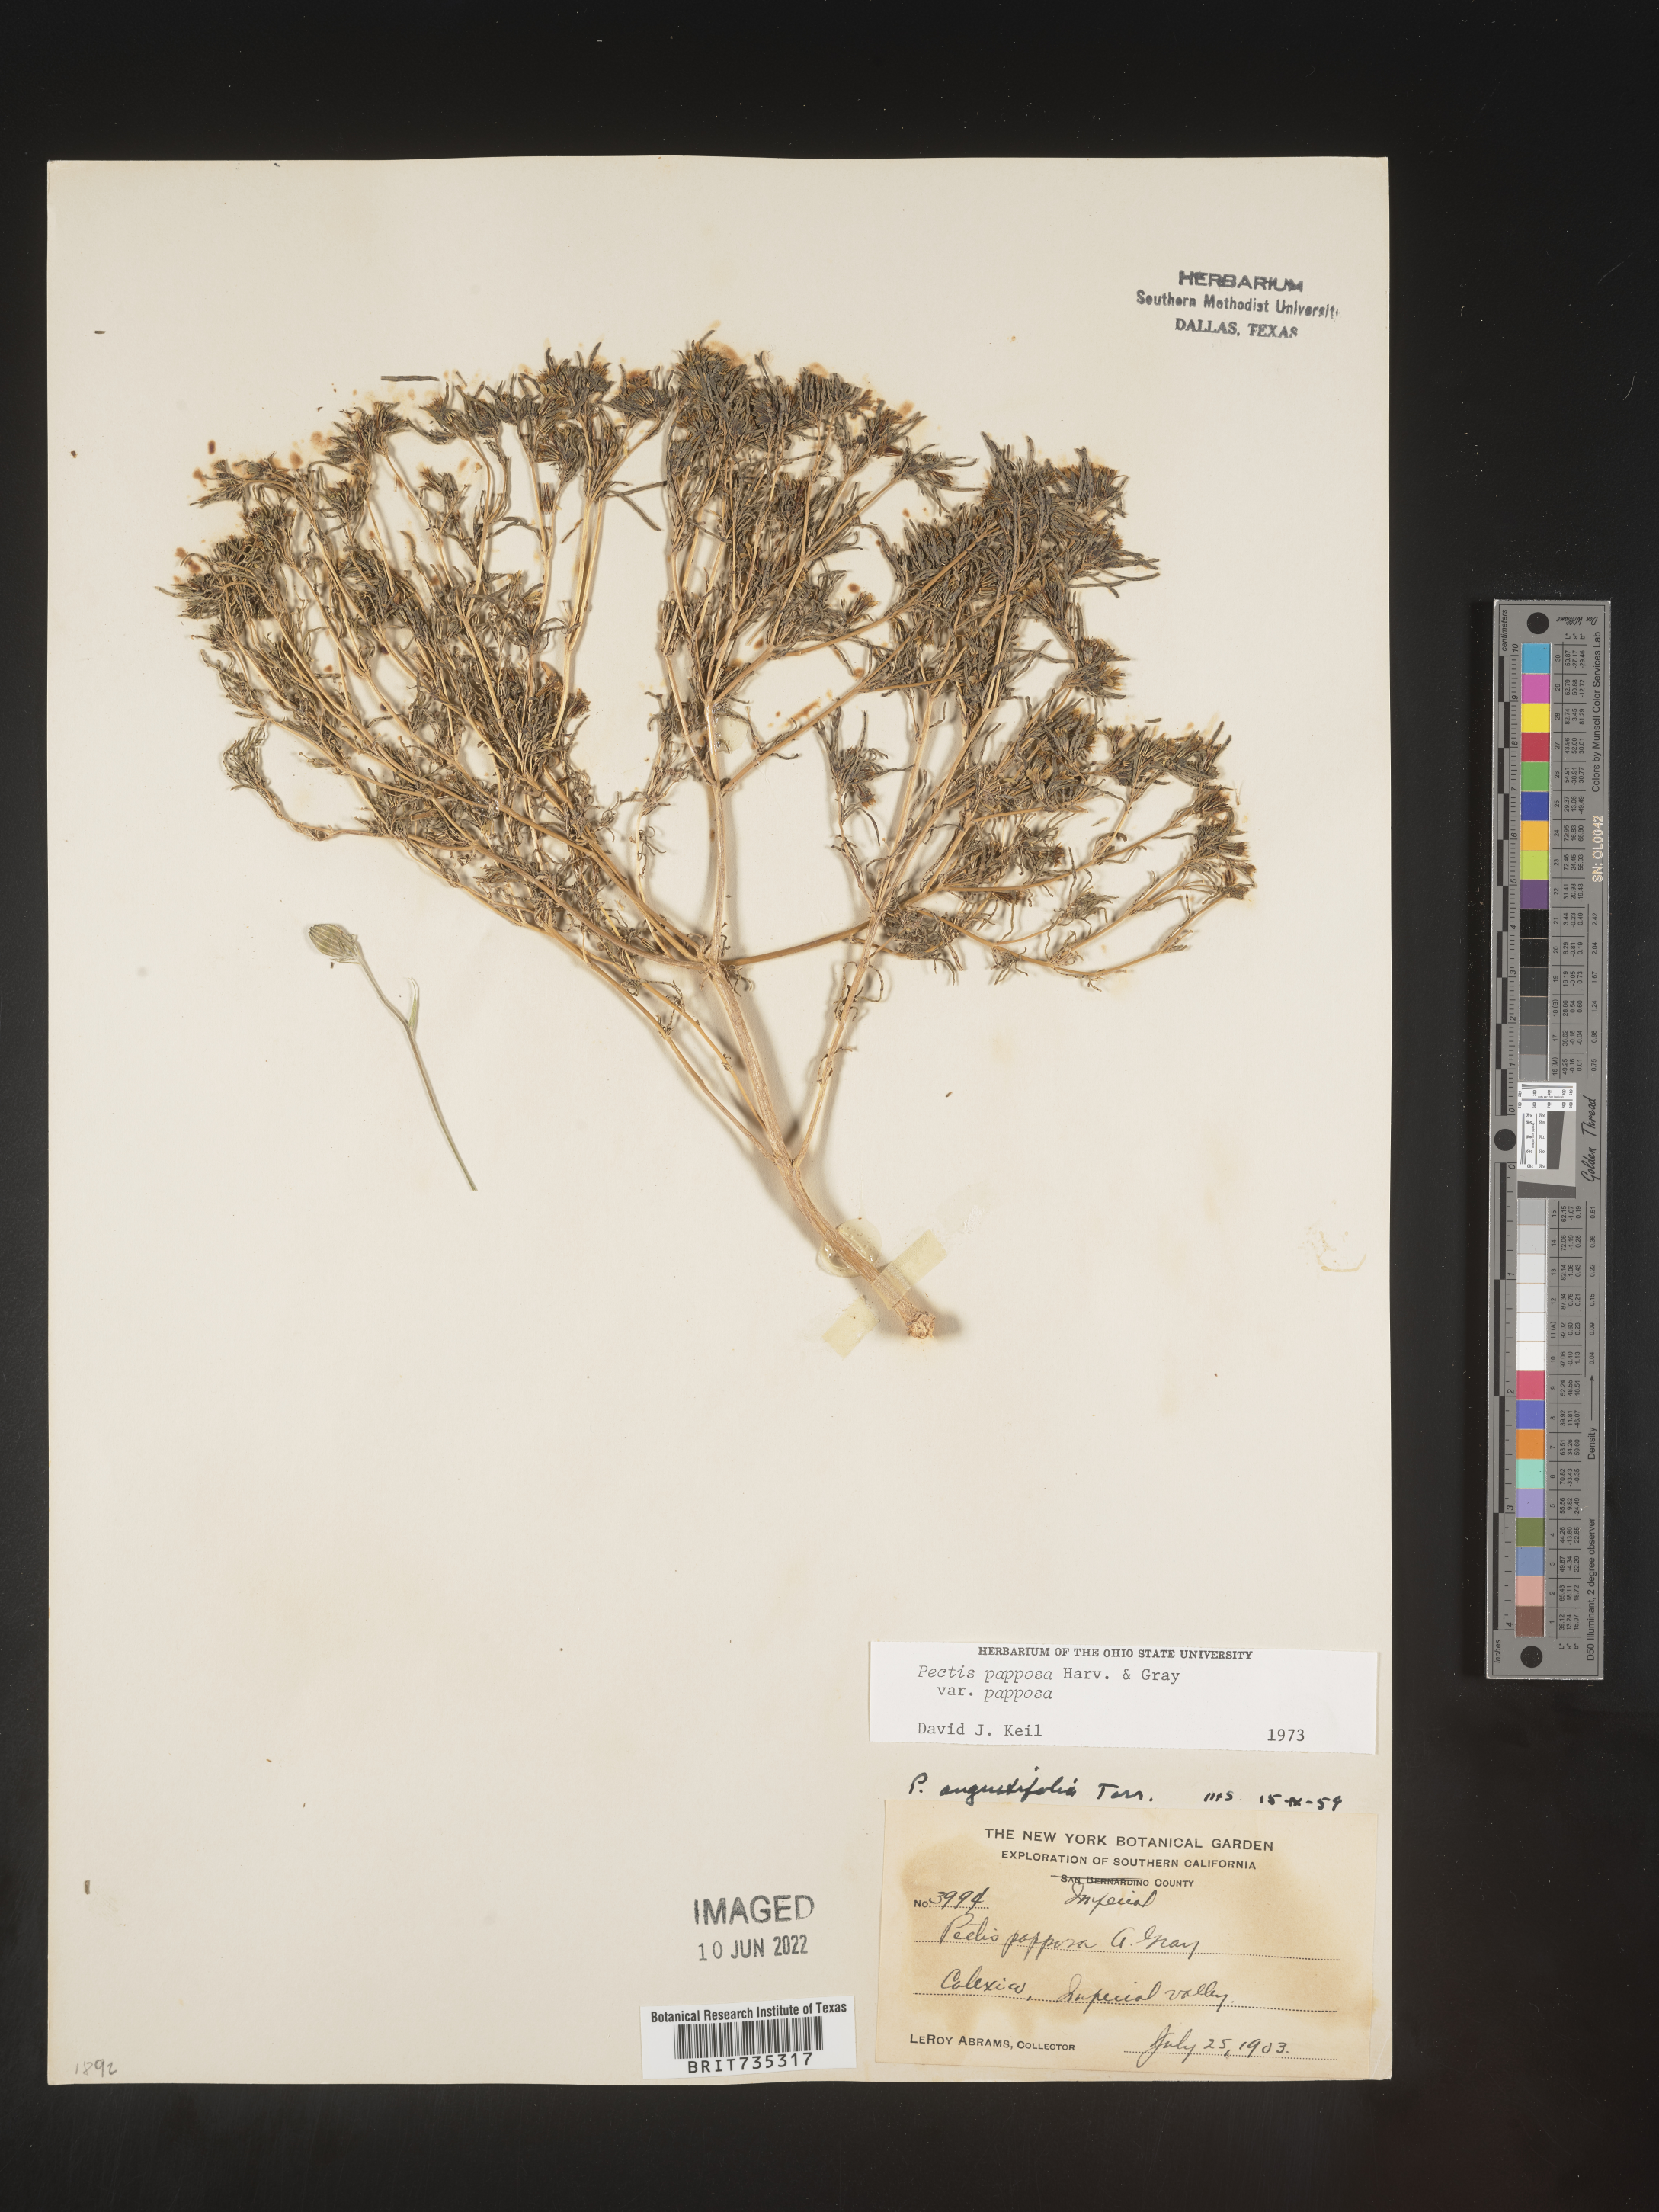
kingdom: Plantae
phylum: Tracheophyta
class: Magnoliopsida
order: Asterales
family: Asteraceae
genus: Pectis
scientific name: Pectis papposa
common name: Many-bristle chinchweed
